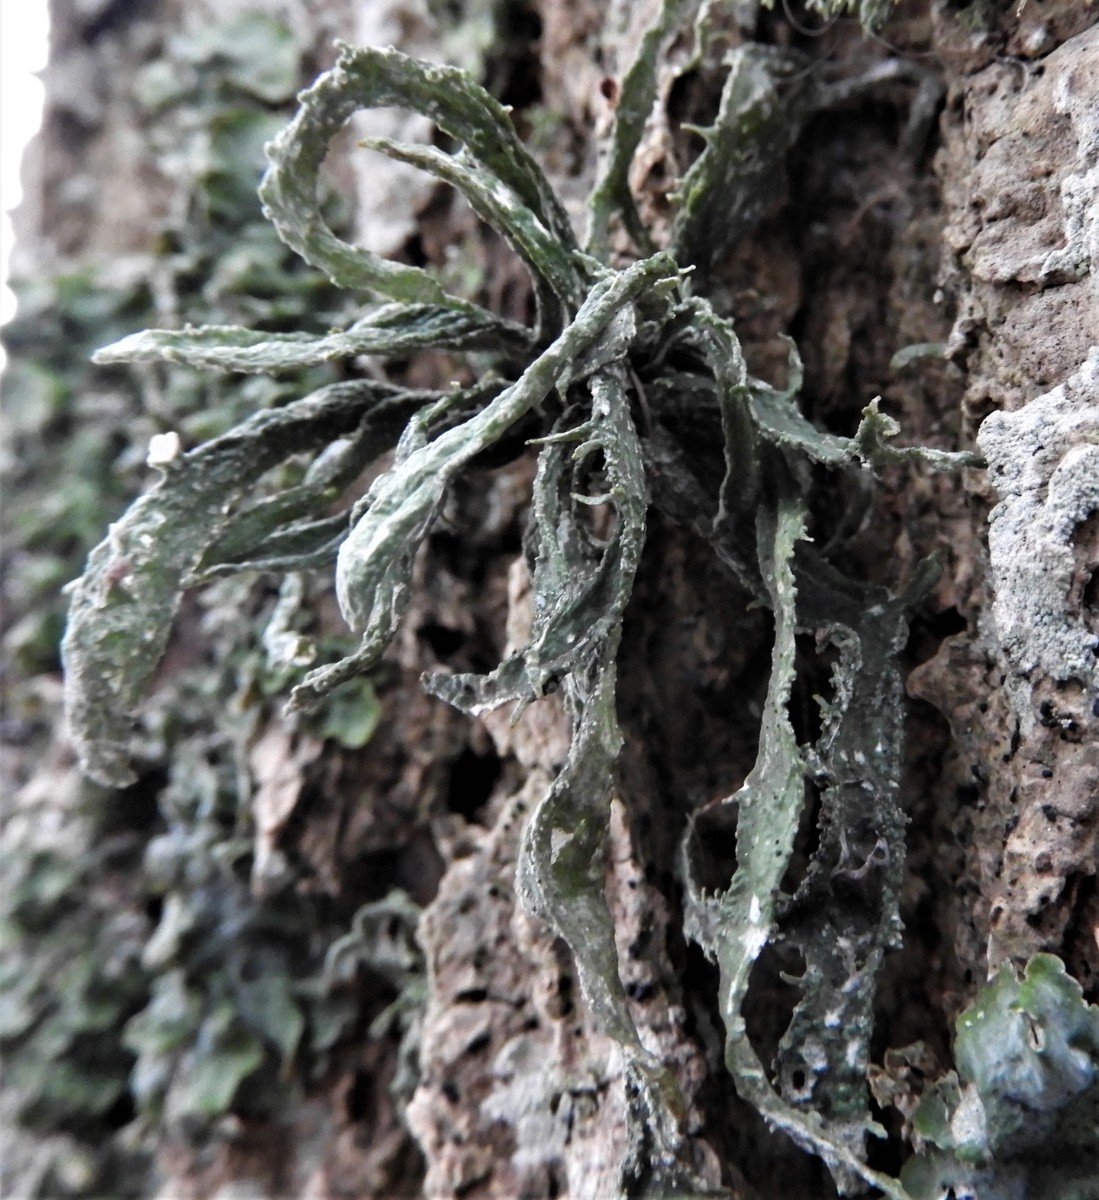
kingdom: Fungi
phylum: Ascomycota
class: Lecanoromycetes
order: Lecanorales
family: Ramalinaceae
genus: Ramalina
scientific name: Ramalina fraxinea
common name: stor grenlav
